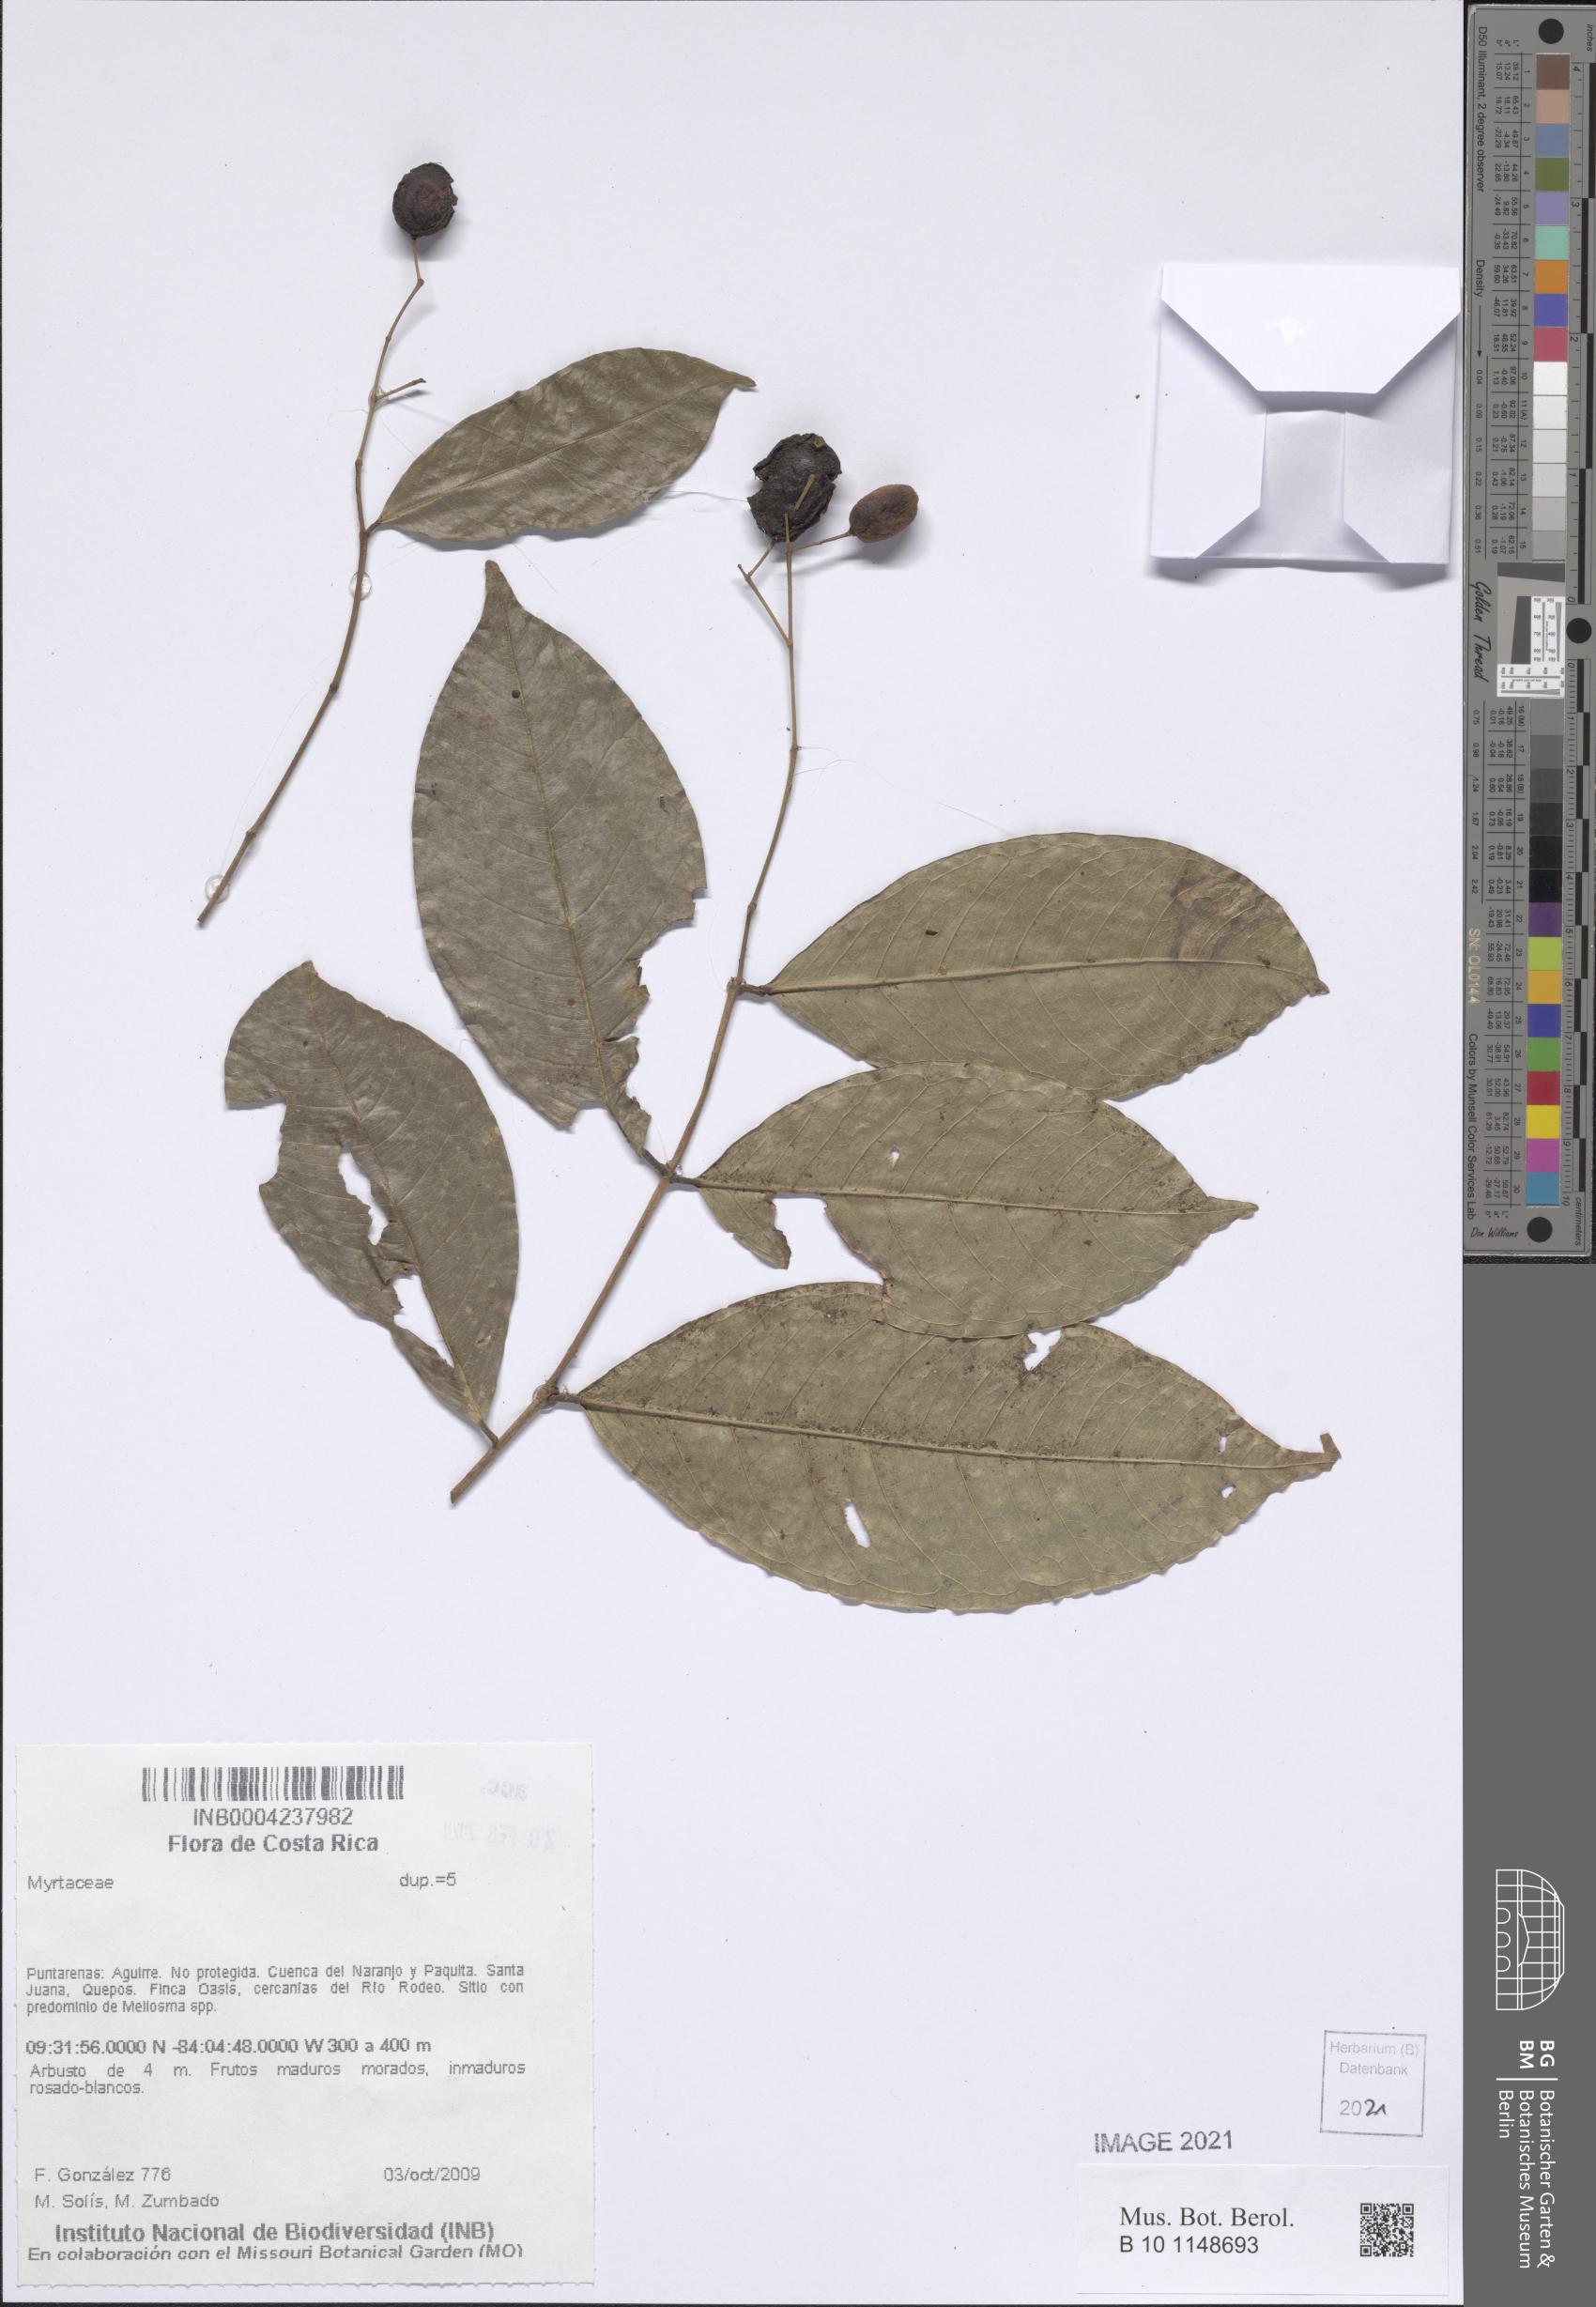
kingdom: Plantae
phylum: Tracheophyta
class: Magnoliopsida
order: Myrtales
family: Myrtaceae
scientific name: Myrtaceae
